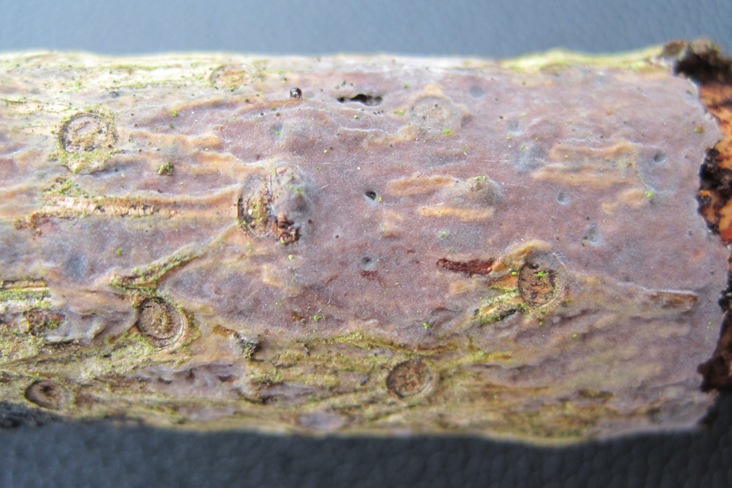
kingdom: Fungi
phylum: Basidiomycota
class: Tremellomycetes
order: Tremellales
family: Exidiaceae
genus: Exidiopsis
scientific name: Exidiopsis effusa
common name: smuk bævrehinde
